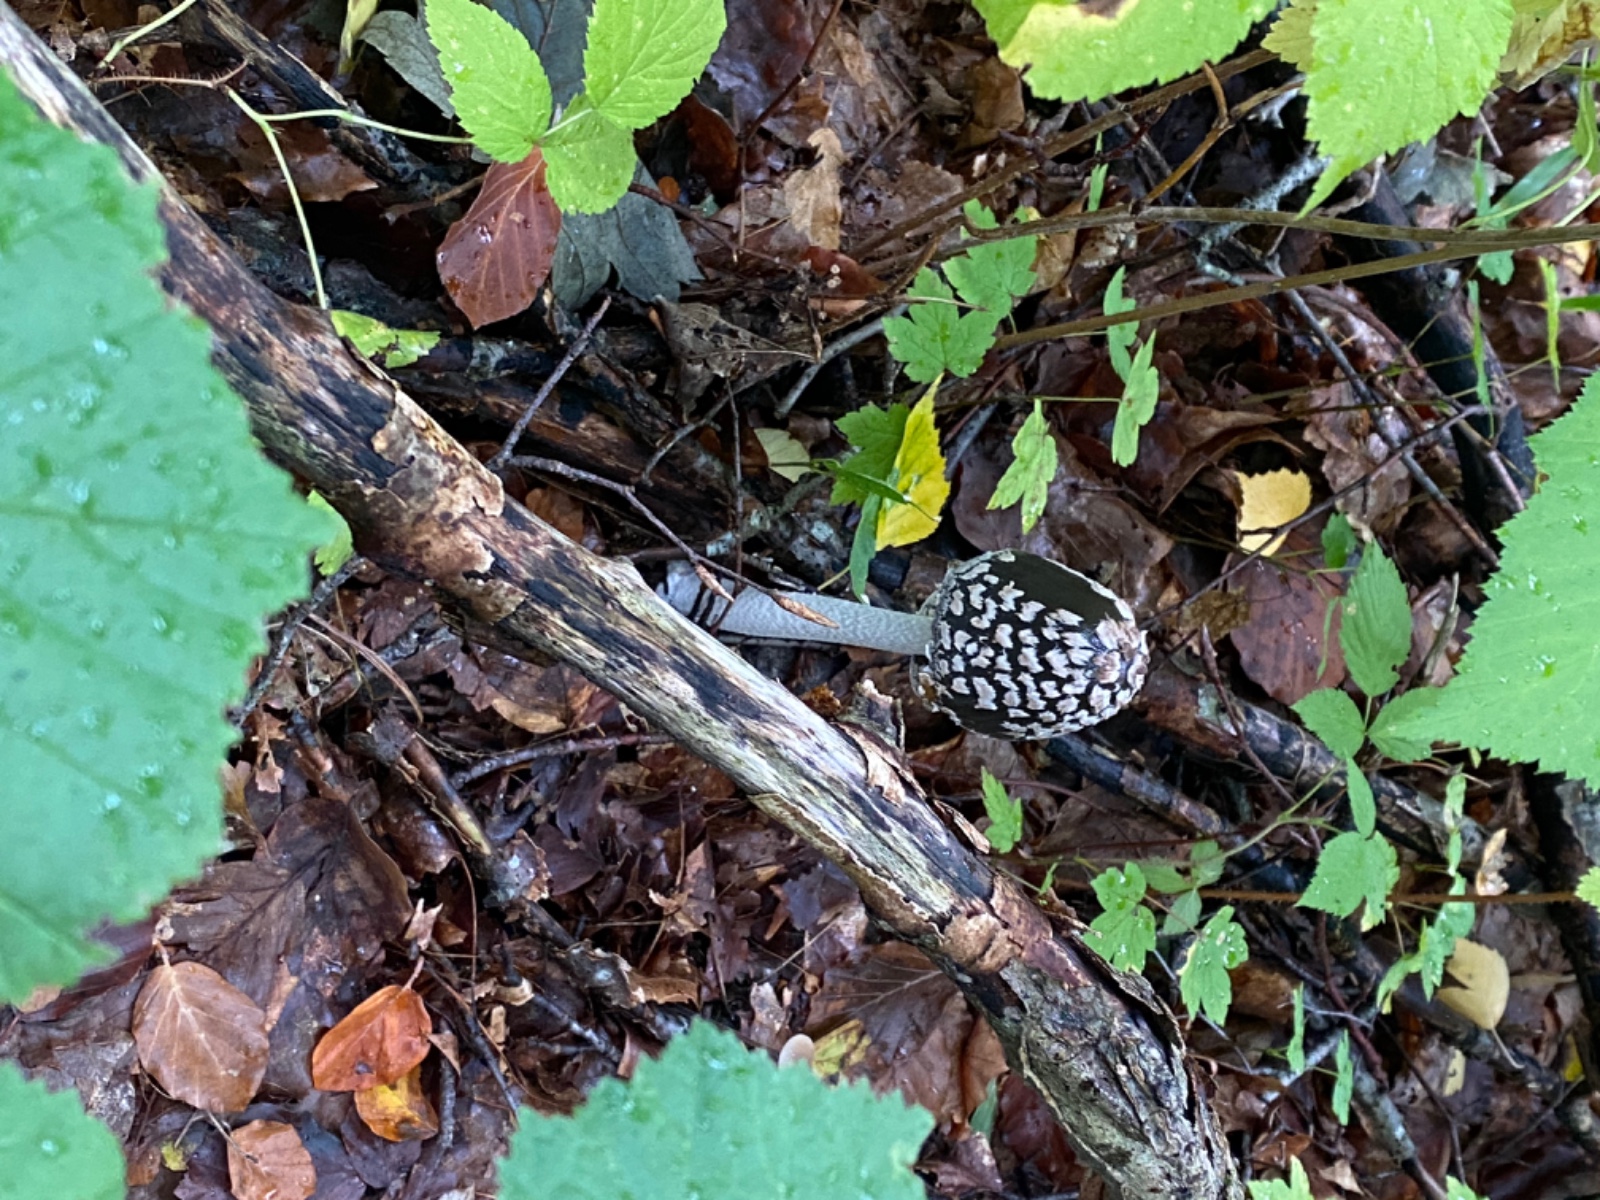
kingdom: Fungi
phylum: Basidiomycota
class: Agaricomycetes
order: Agaricales
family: Psathyrellaceae
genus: Coprinopsis
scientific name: Coprinopsis picacea
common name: skade-blækhat
